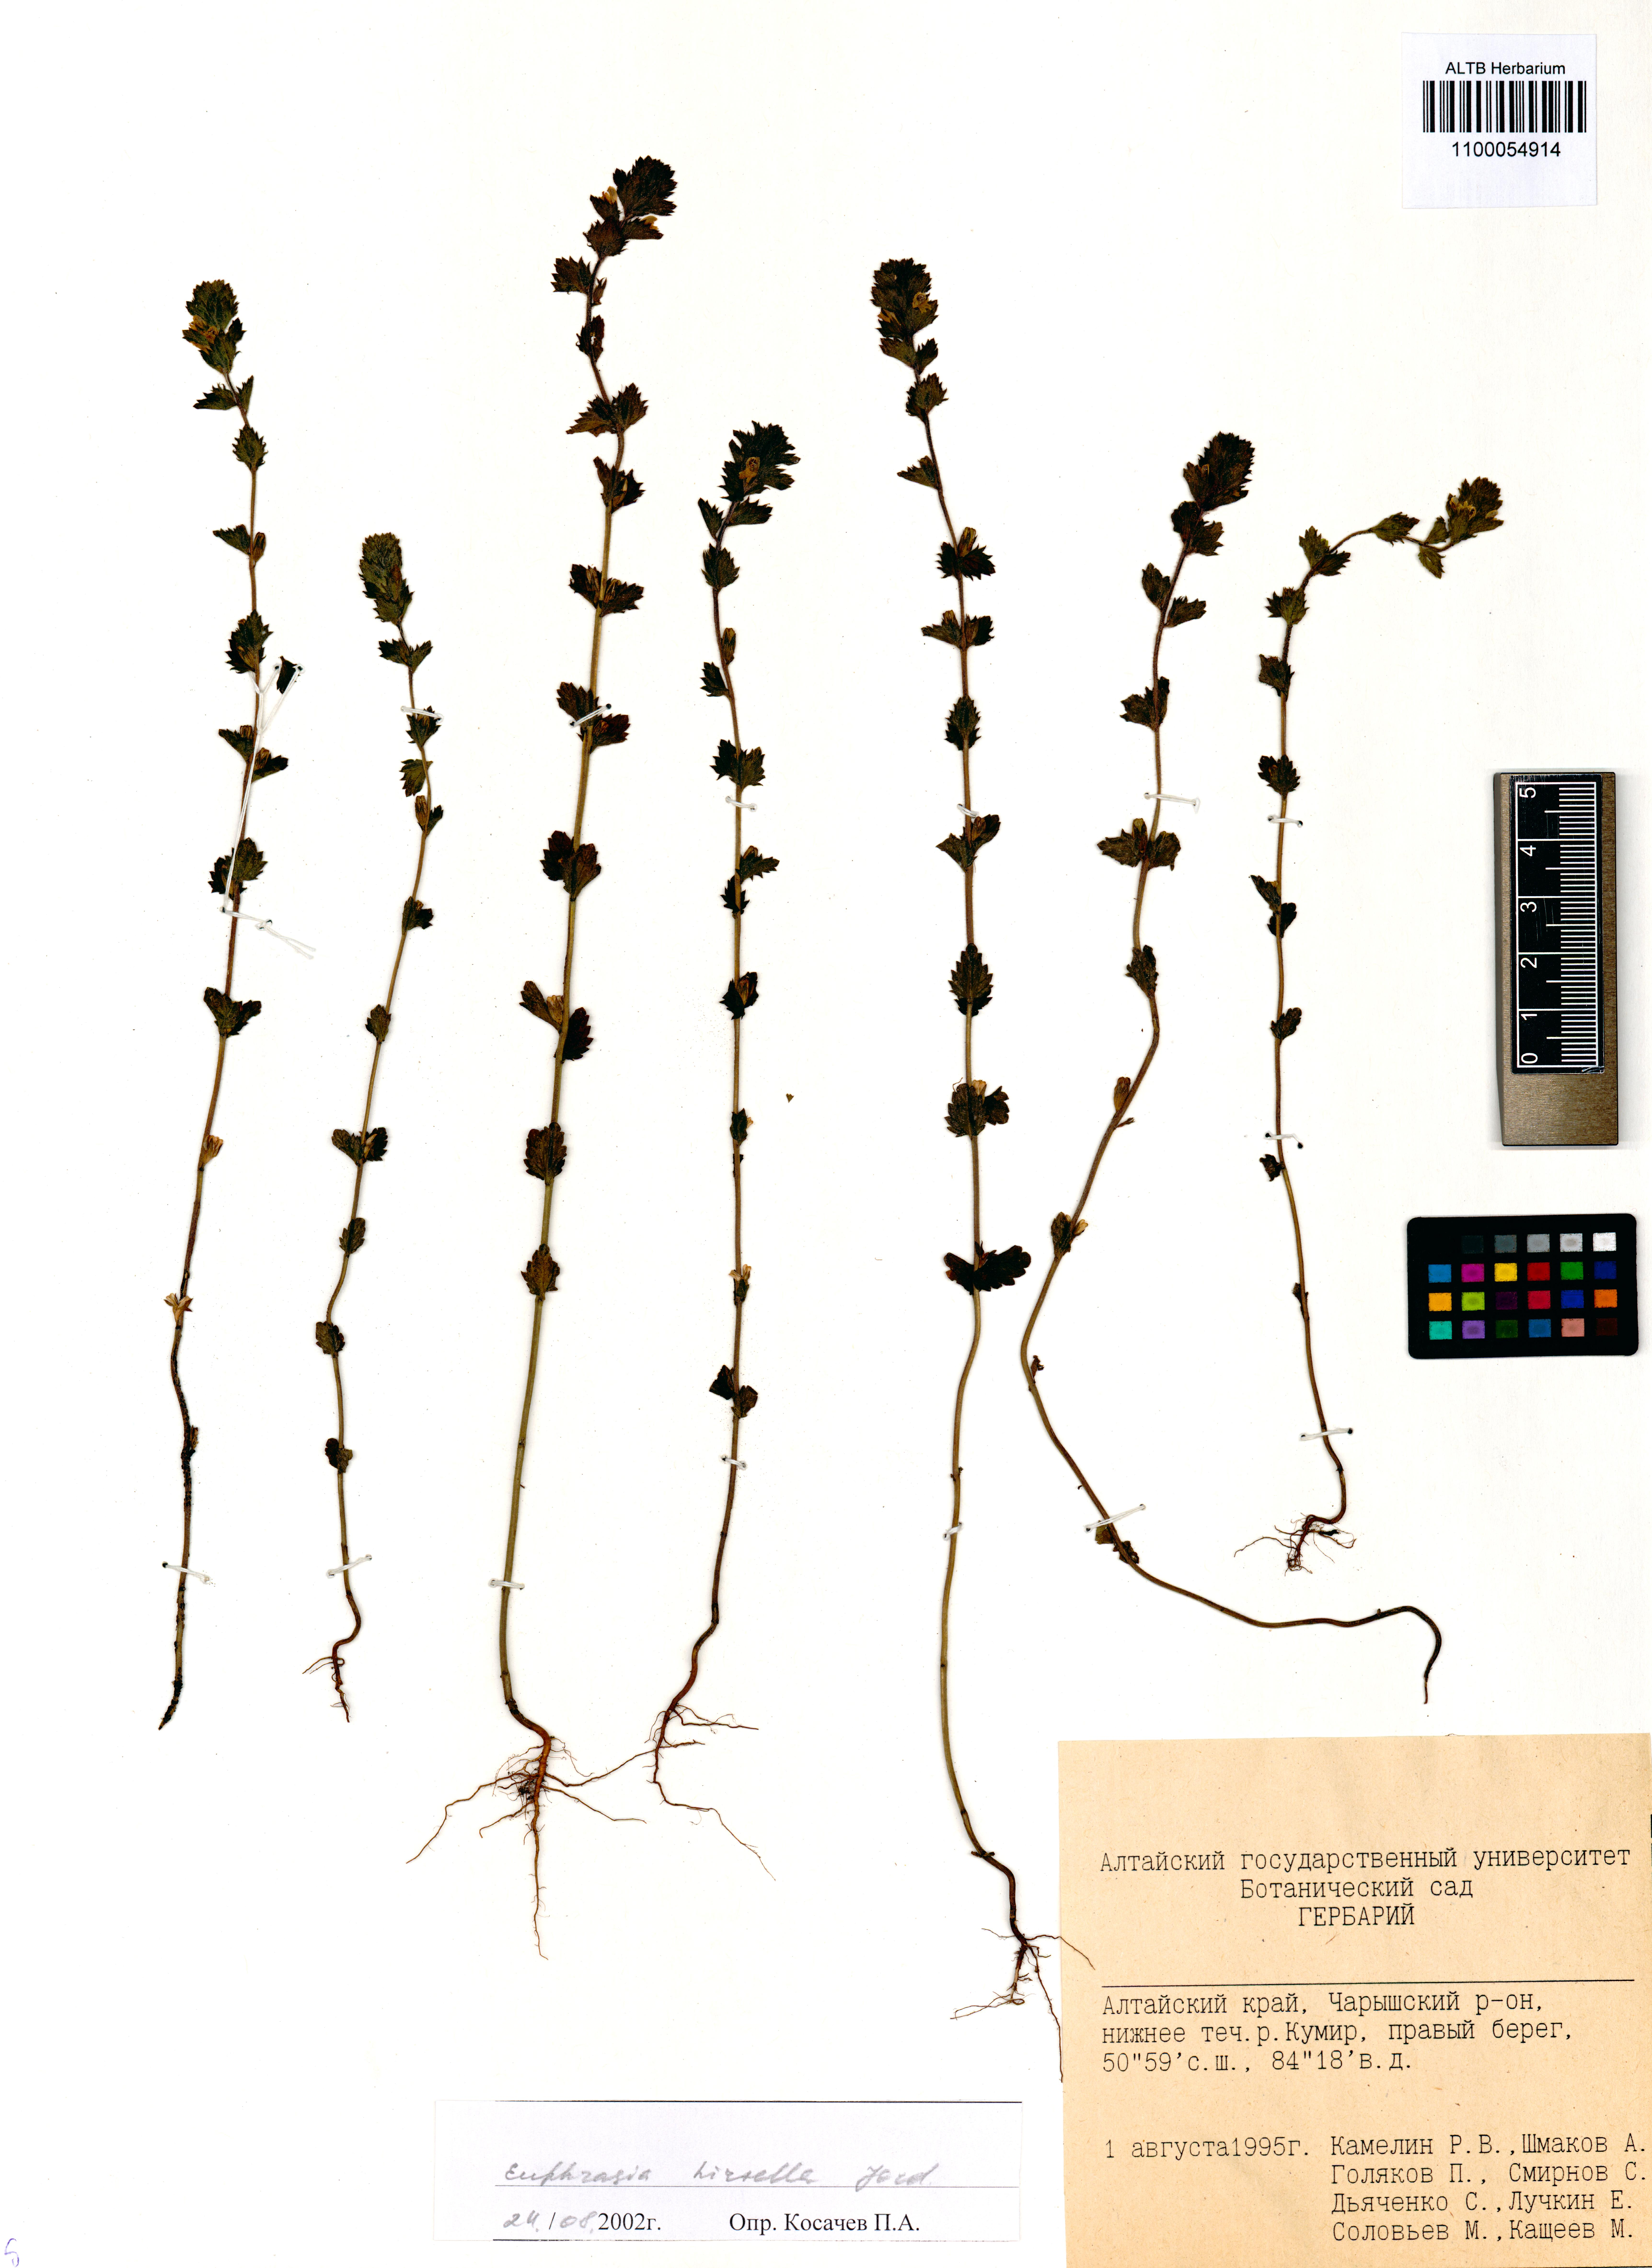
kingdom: Plantae
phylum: Tracheophyta
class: Magnoliopsida
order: Lamiales
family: Orobanchaceae
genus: Euphrasia
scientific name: Euphrasia hirtella
